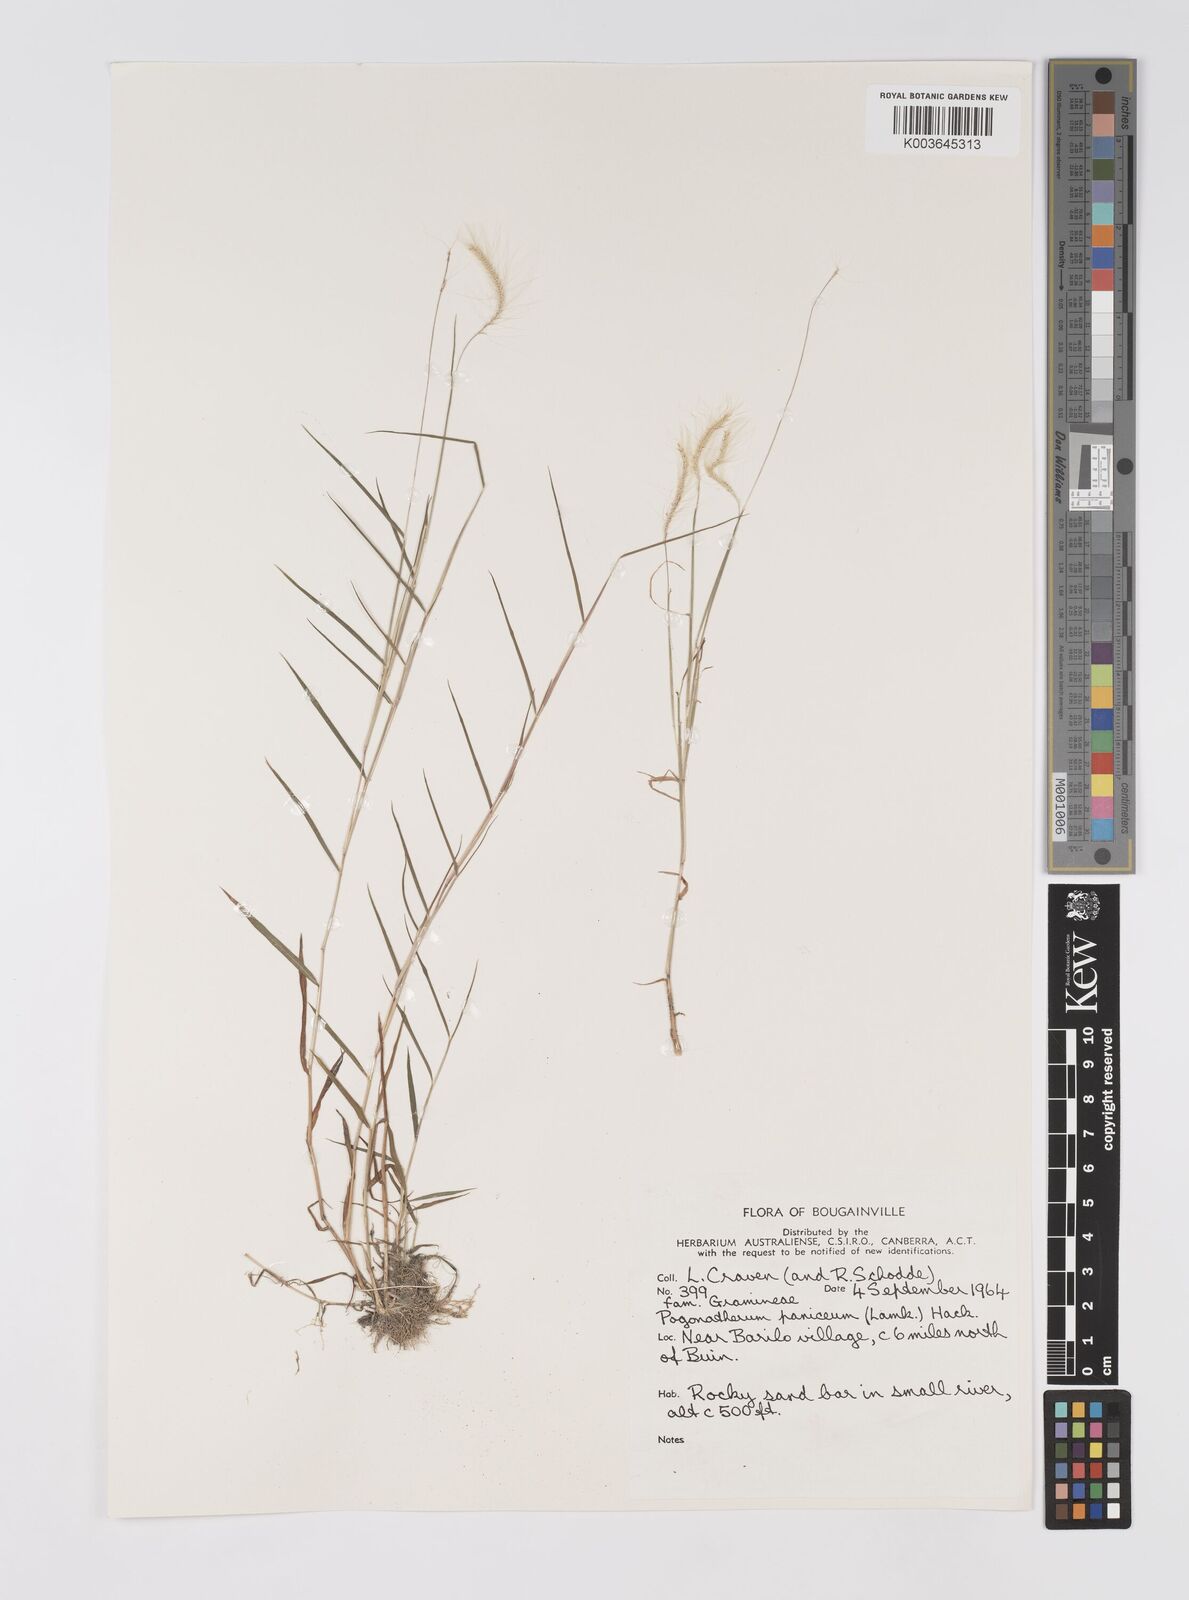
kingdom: Plantae
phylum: Tracheophyta
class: Liliopsida
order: Poales
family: Poaceae
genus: Pogonatherum
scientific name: Pogonatherum crinitum
